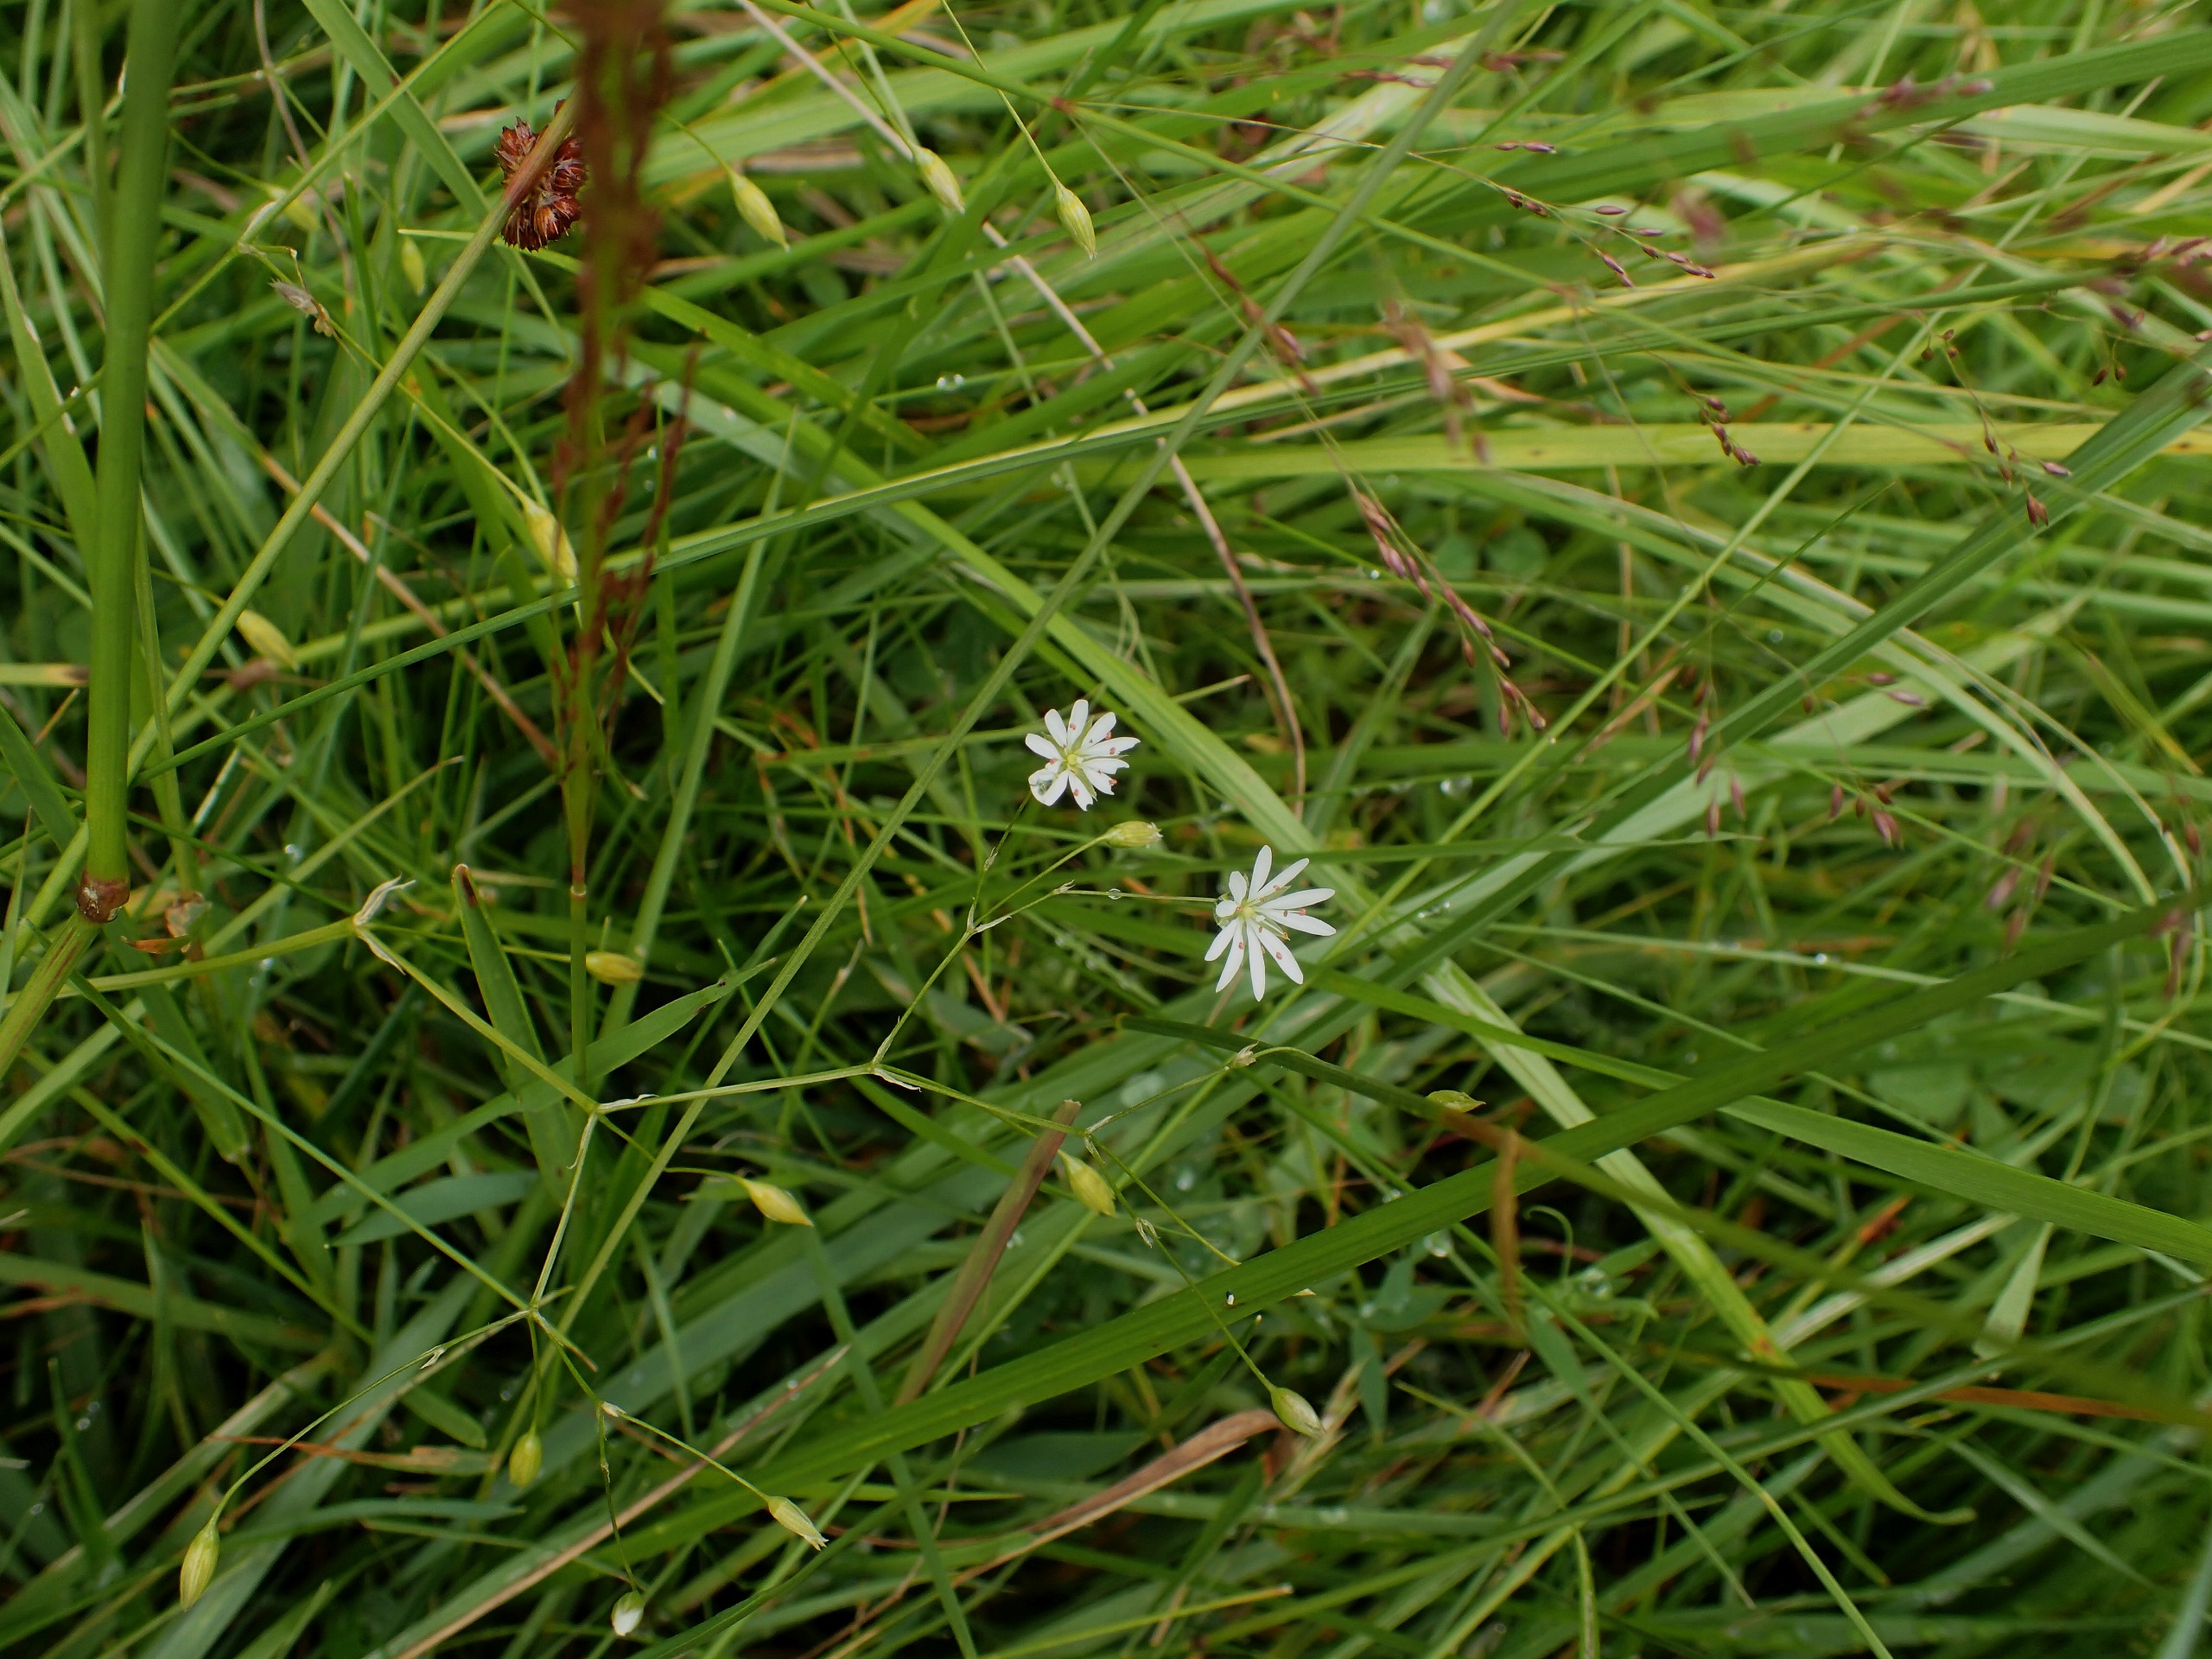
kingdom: Plantae
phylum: Tracheophyta
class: Magnoliopsida
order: Caryophyllales
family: Caryophyllaceae
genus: Stellaria
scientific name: Stellaria graminea
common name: Græsbladet fladstjerne
